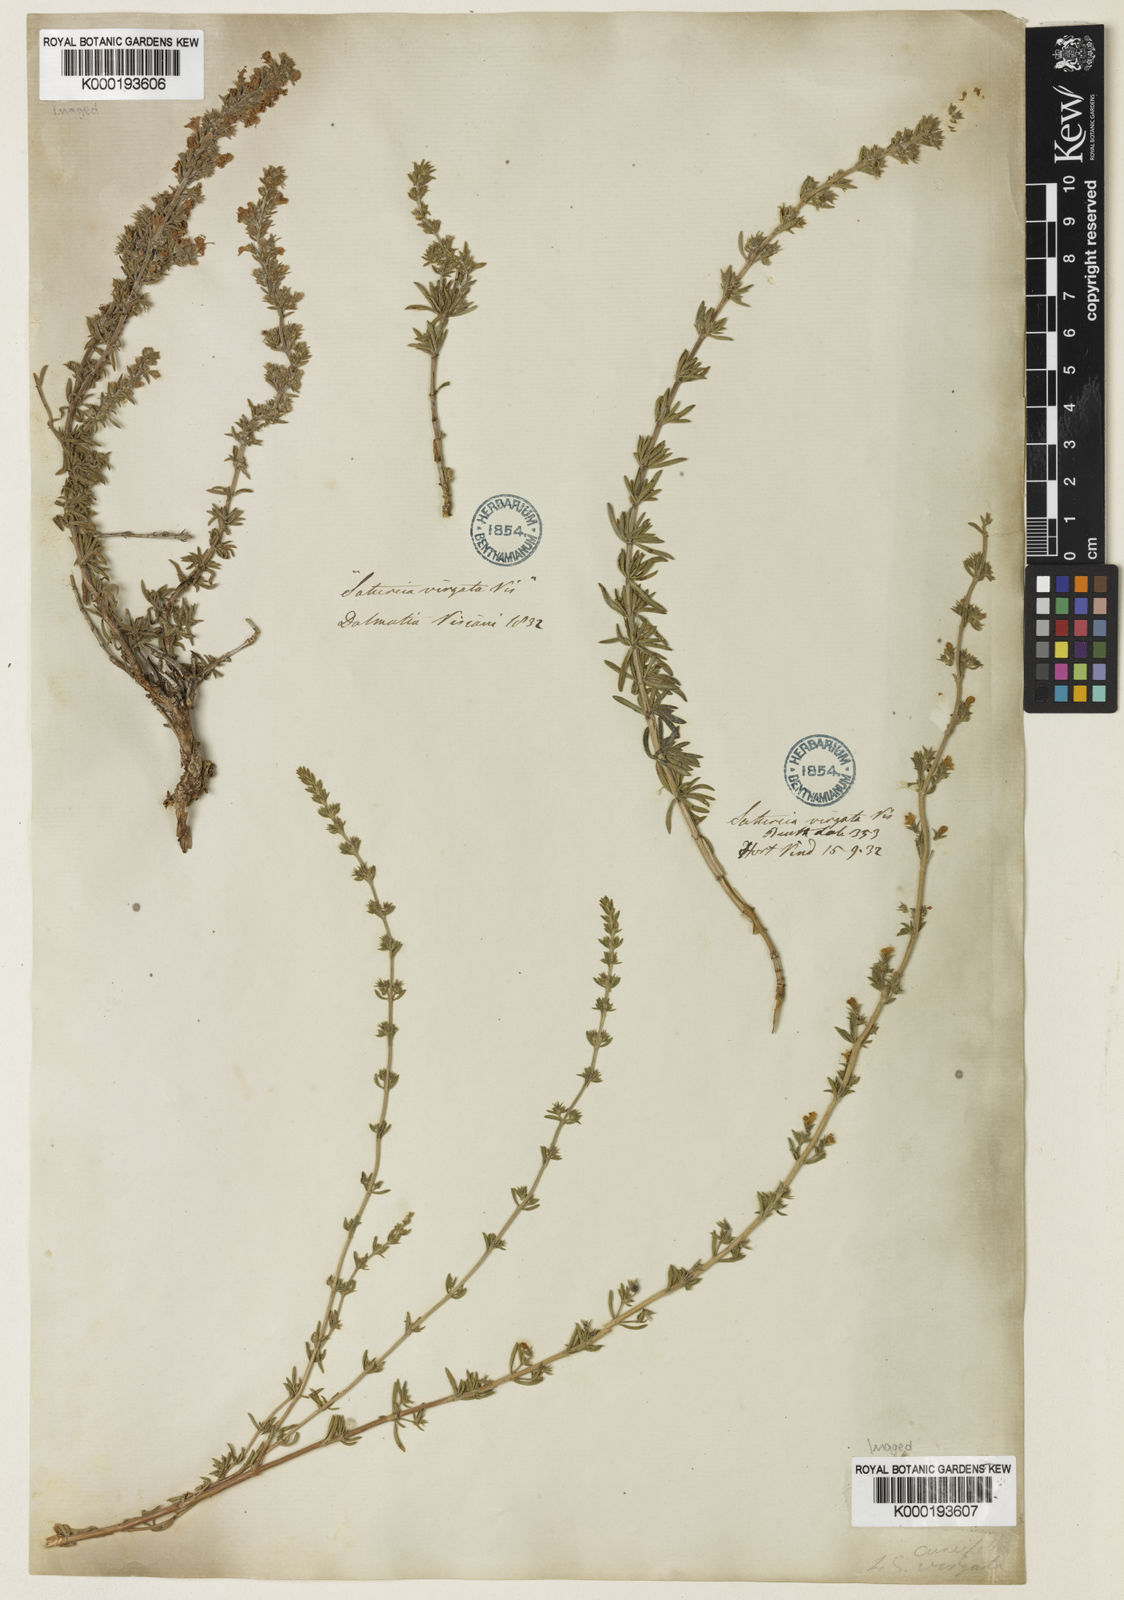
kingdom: Plantae
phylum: Tracheophyta
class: Magnoliopsida
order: Lamiales
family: Lamiaceae
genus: Satureja
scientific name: Satureja cuneifolia
